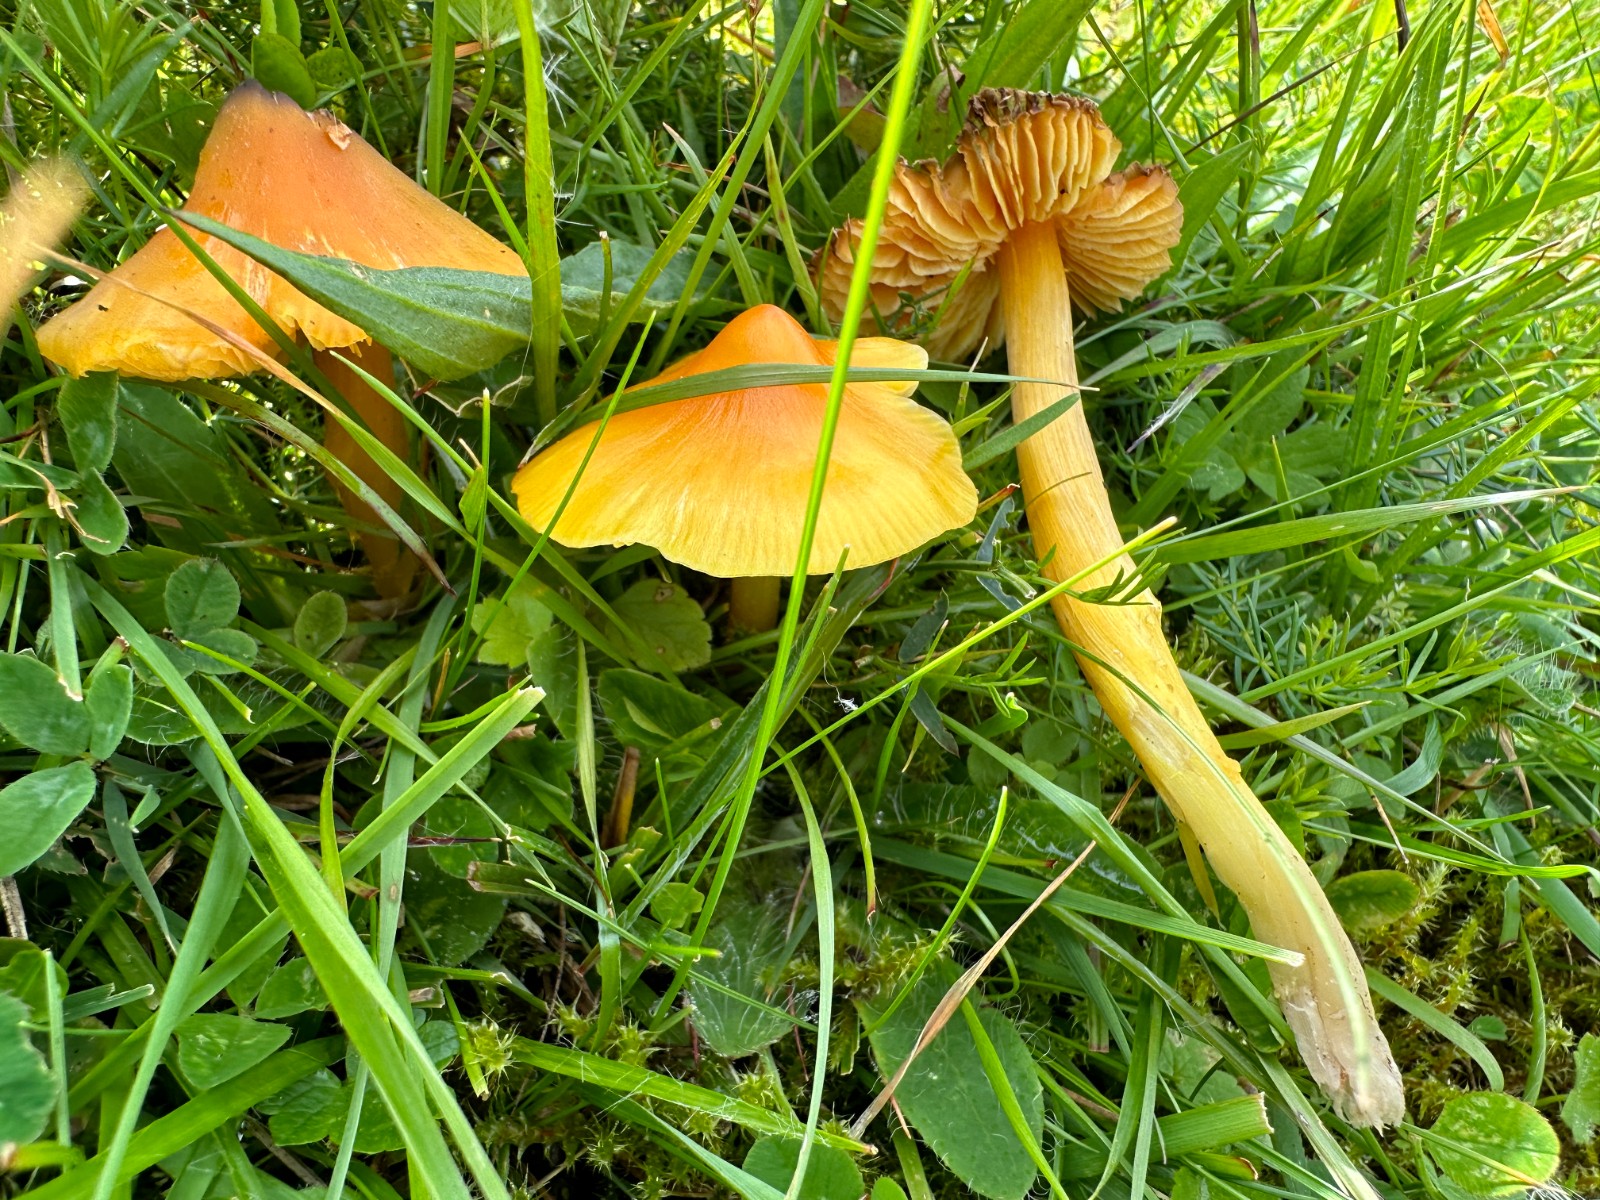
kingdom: Fungi
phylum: Basidiomycota
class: Agaricomycetes
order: Agaricales
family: Hygrophoraceae
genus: Hygrocybe
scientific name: Hygrocybe acutoconica
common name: spidspuklet vokshat
